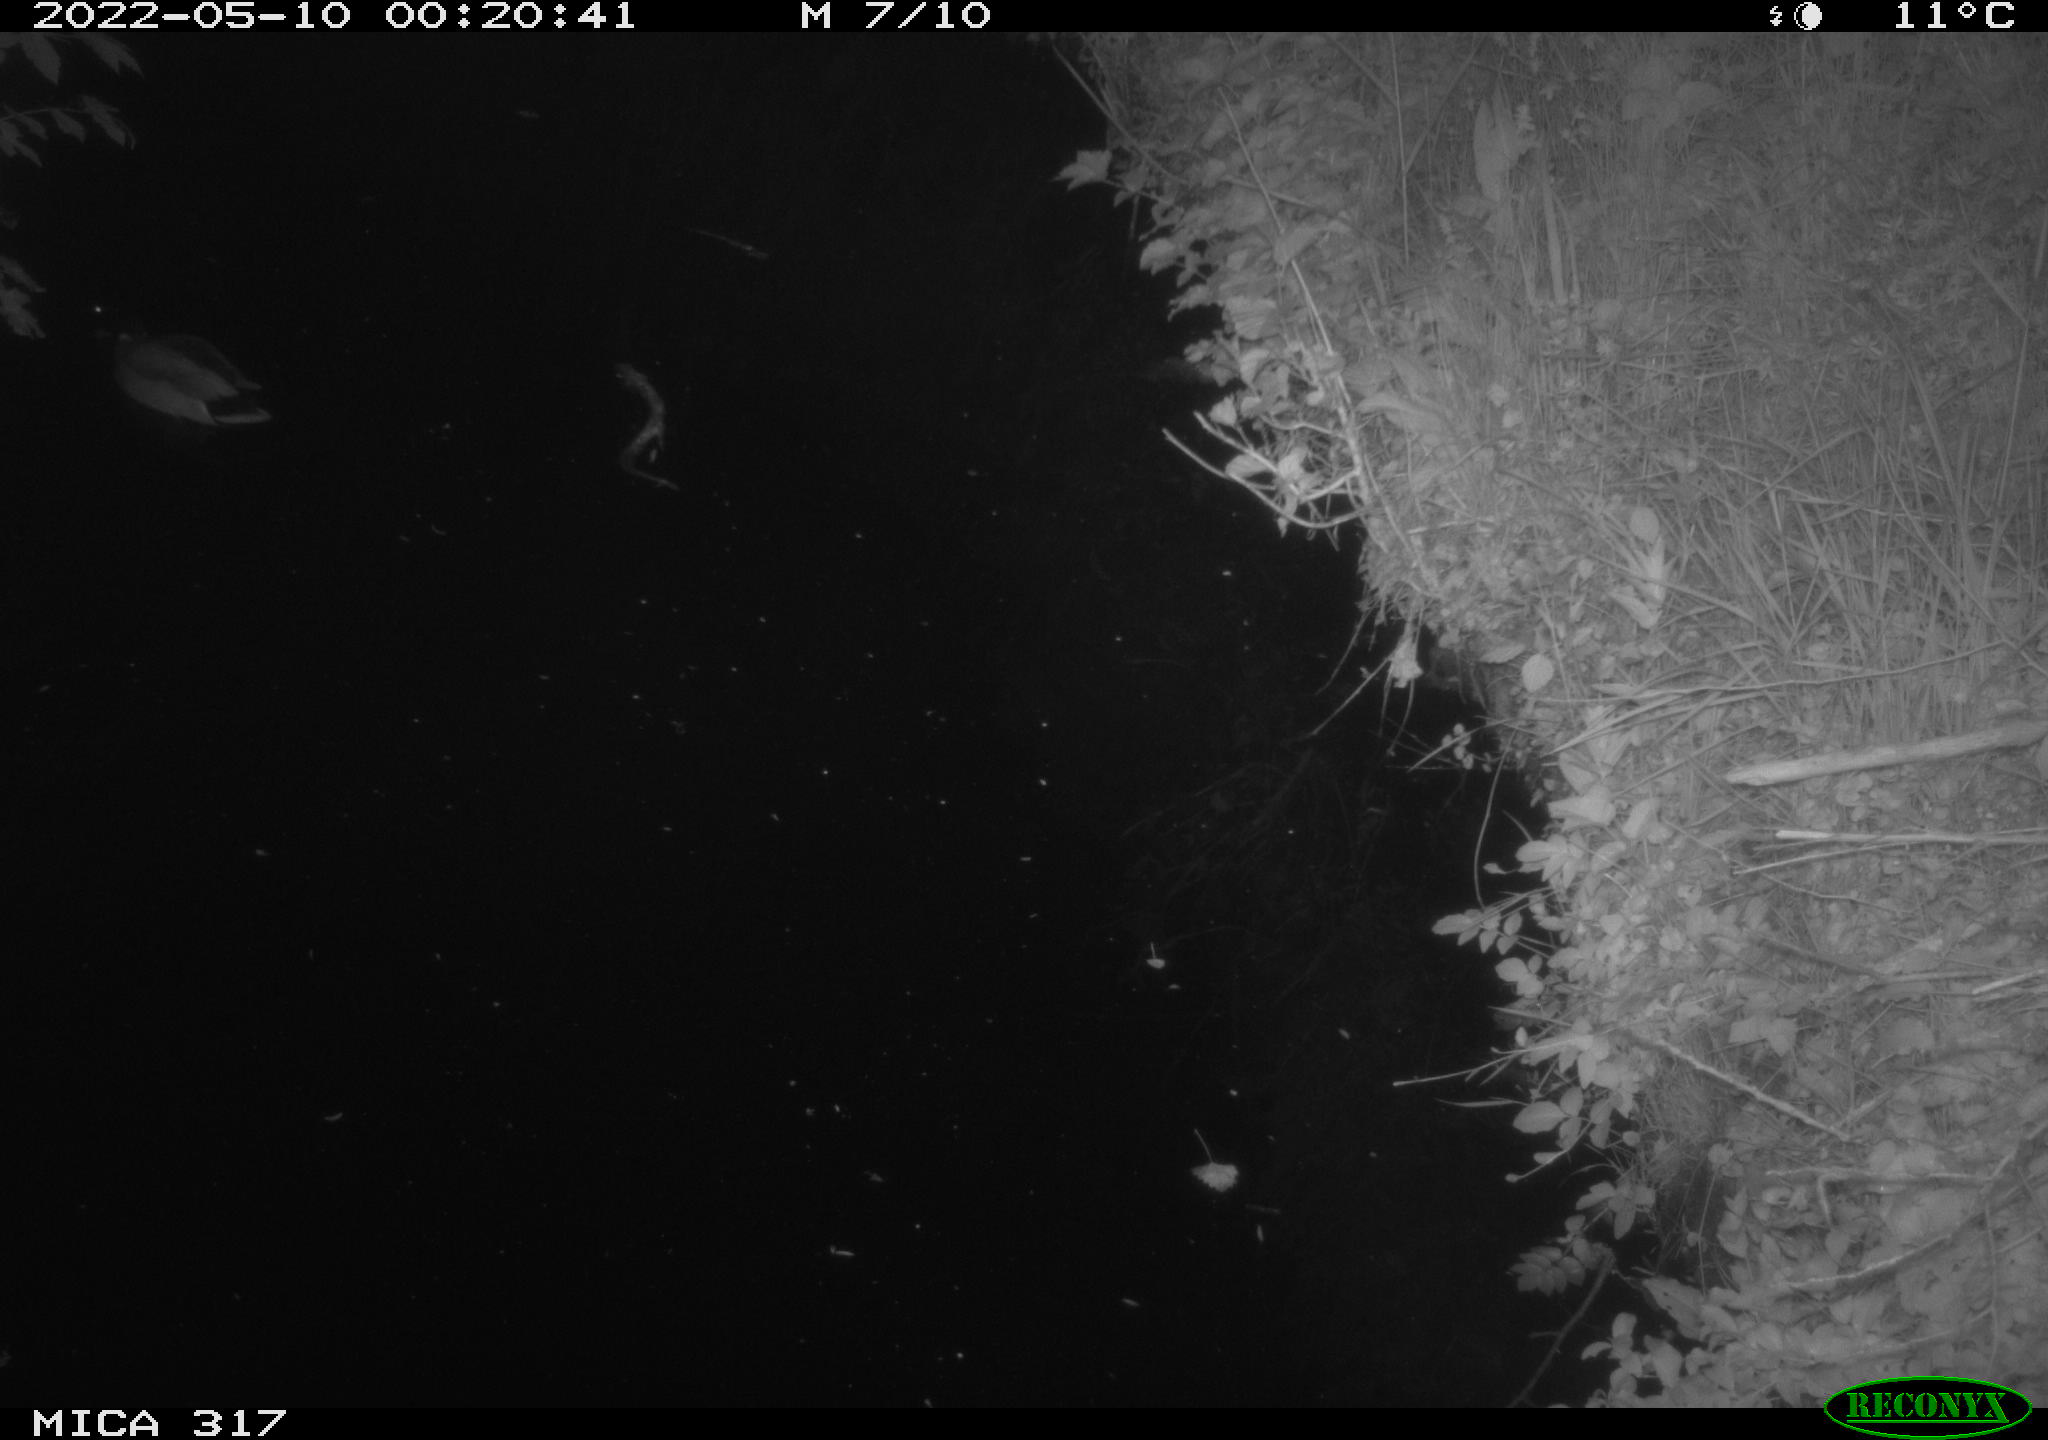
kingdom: Animalia
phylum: Chordata
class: Aves
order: Anseriformes
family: Anatidae
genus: Anas
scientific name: Anas platyrhynchos
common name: Mallard
